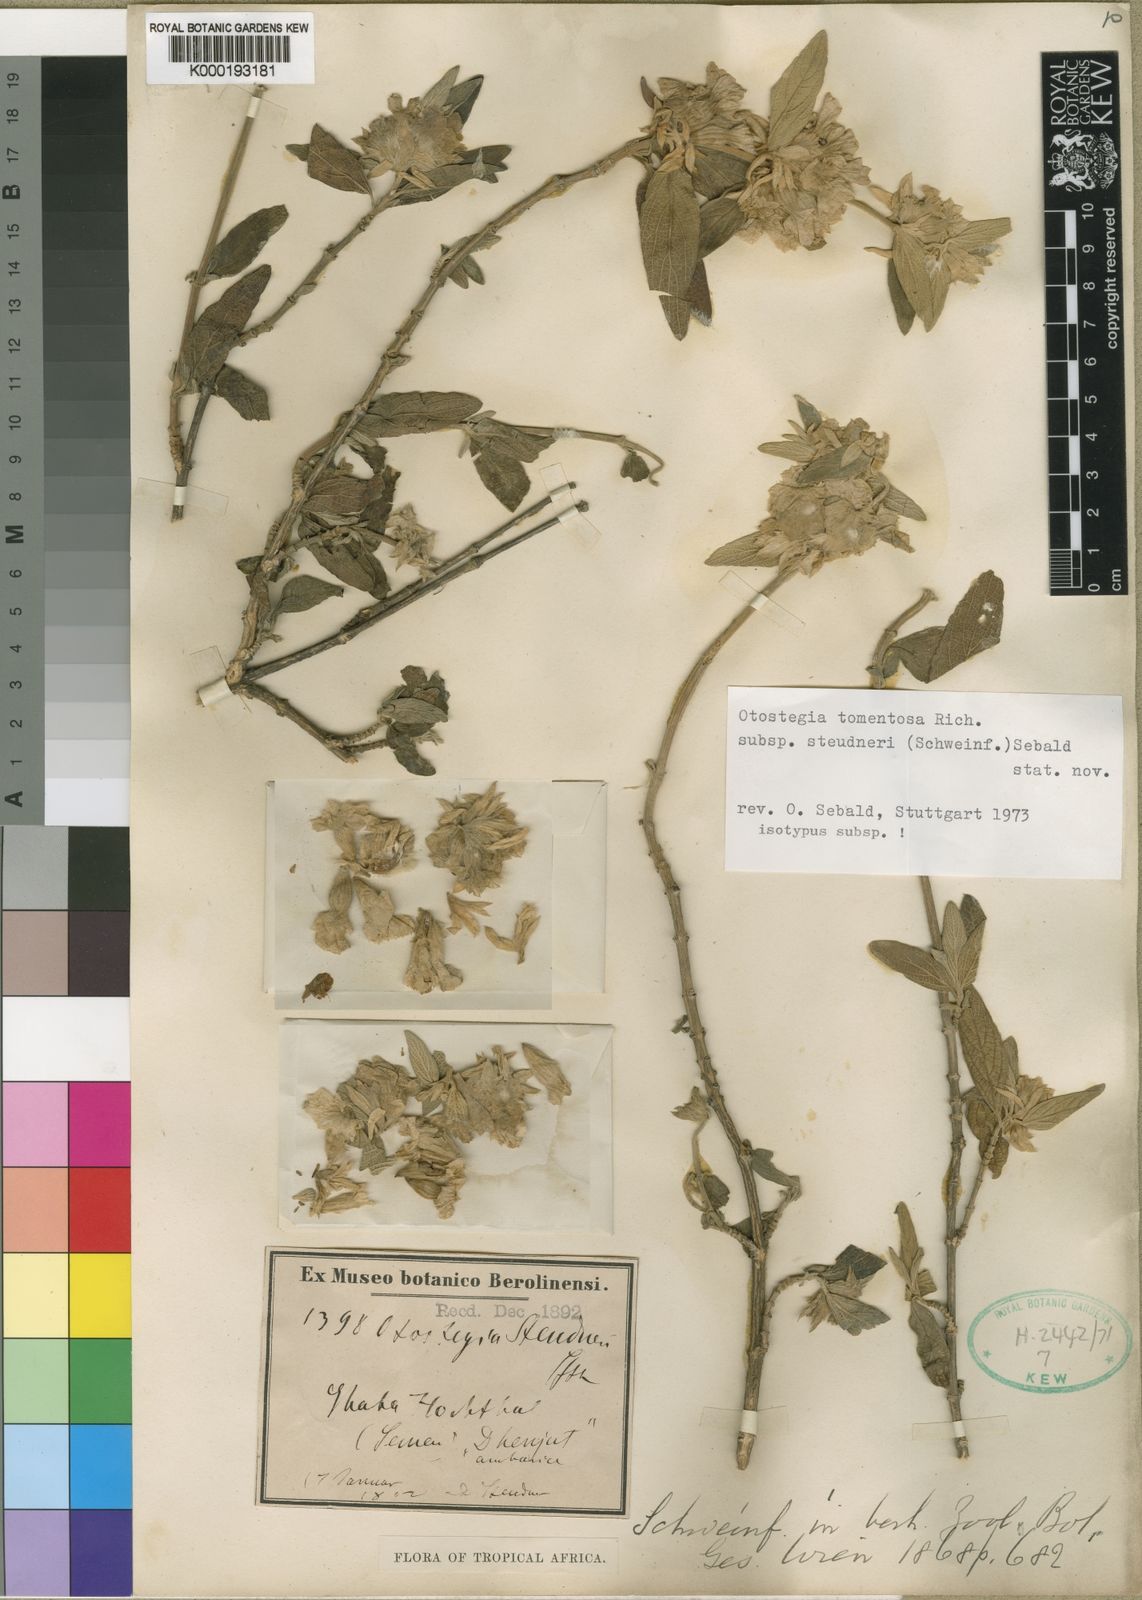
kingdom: Plantae
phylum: Tracheophyta
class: Magnoliopsida
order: Lamiales
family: Lamiaceae
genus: Otostegia
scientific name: Otostegia tomentosa
